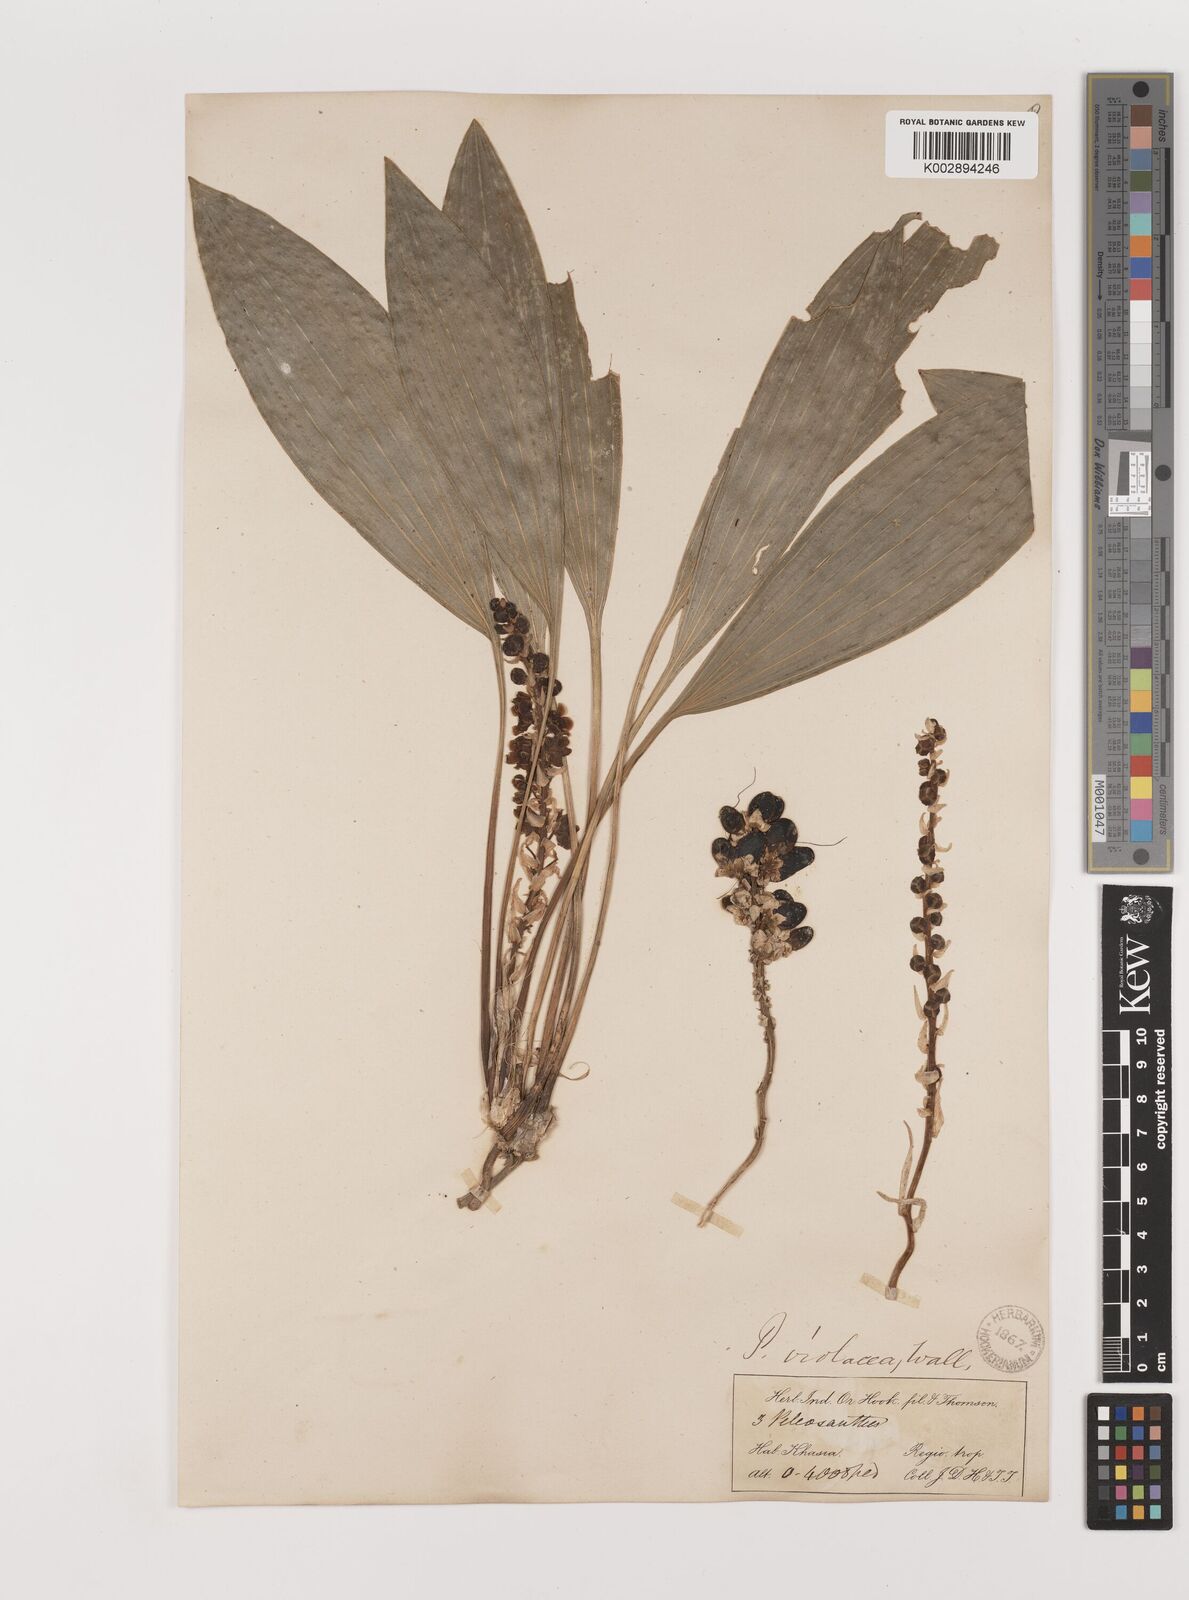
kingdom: Plantae
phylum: Tracheophyta
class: Liliopsida
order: Asparagales
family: Asparagaceae
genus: Peliosanthes
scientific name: Peliosanthes teta
